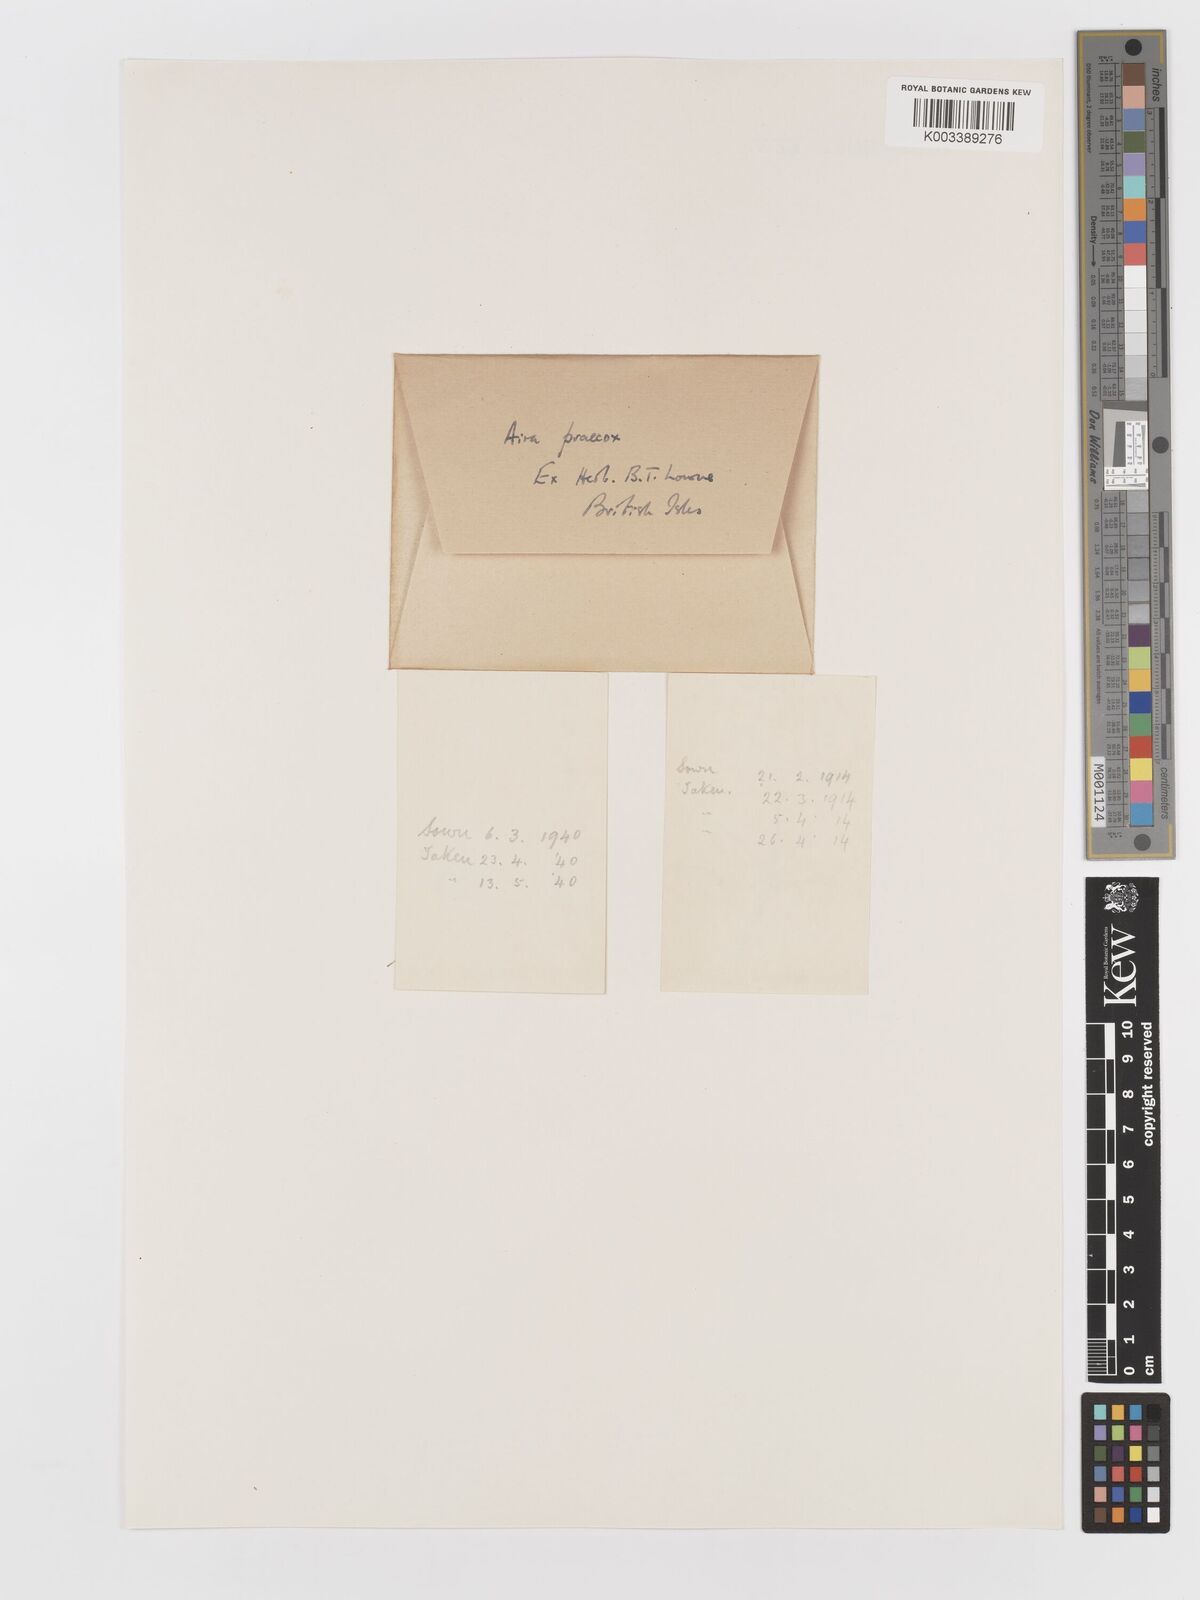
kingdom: Plantae
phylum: Tracheophyta
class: Liliopsida
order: Poales
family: Poaceae
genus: Aira
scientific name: Aira praecox
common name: Early hair-grass
